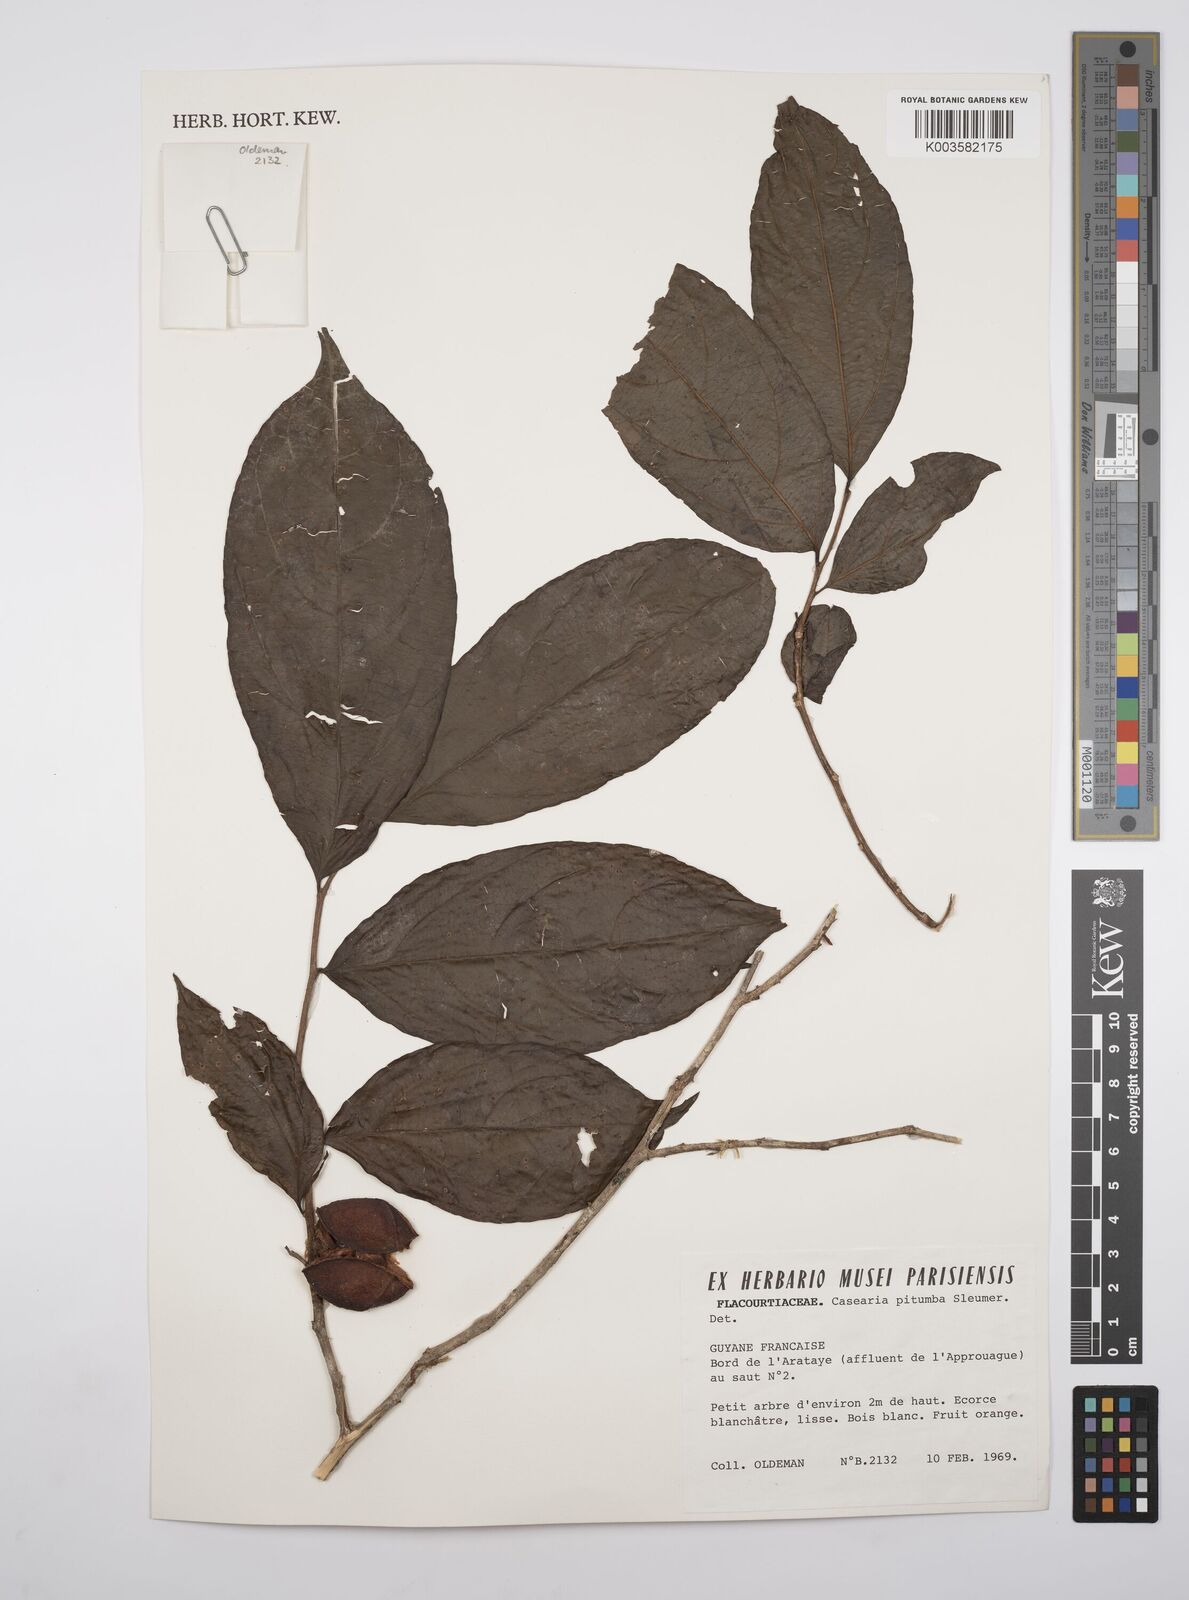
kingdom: Plantae
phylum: Tracheophyta
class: Magnoliopsida
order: Malpighiales
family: Salicaceae
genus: Casearia
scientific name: Casearia pitumba
